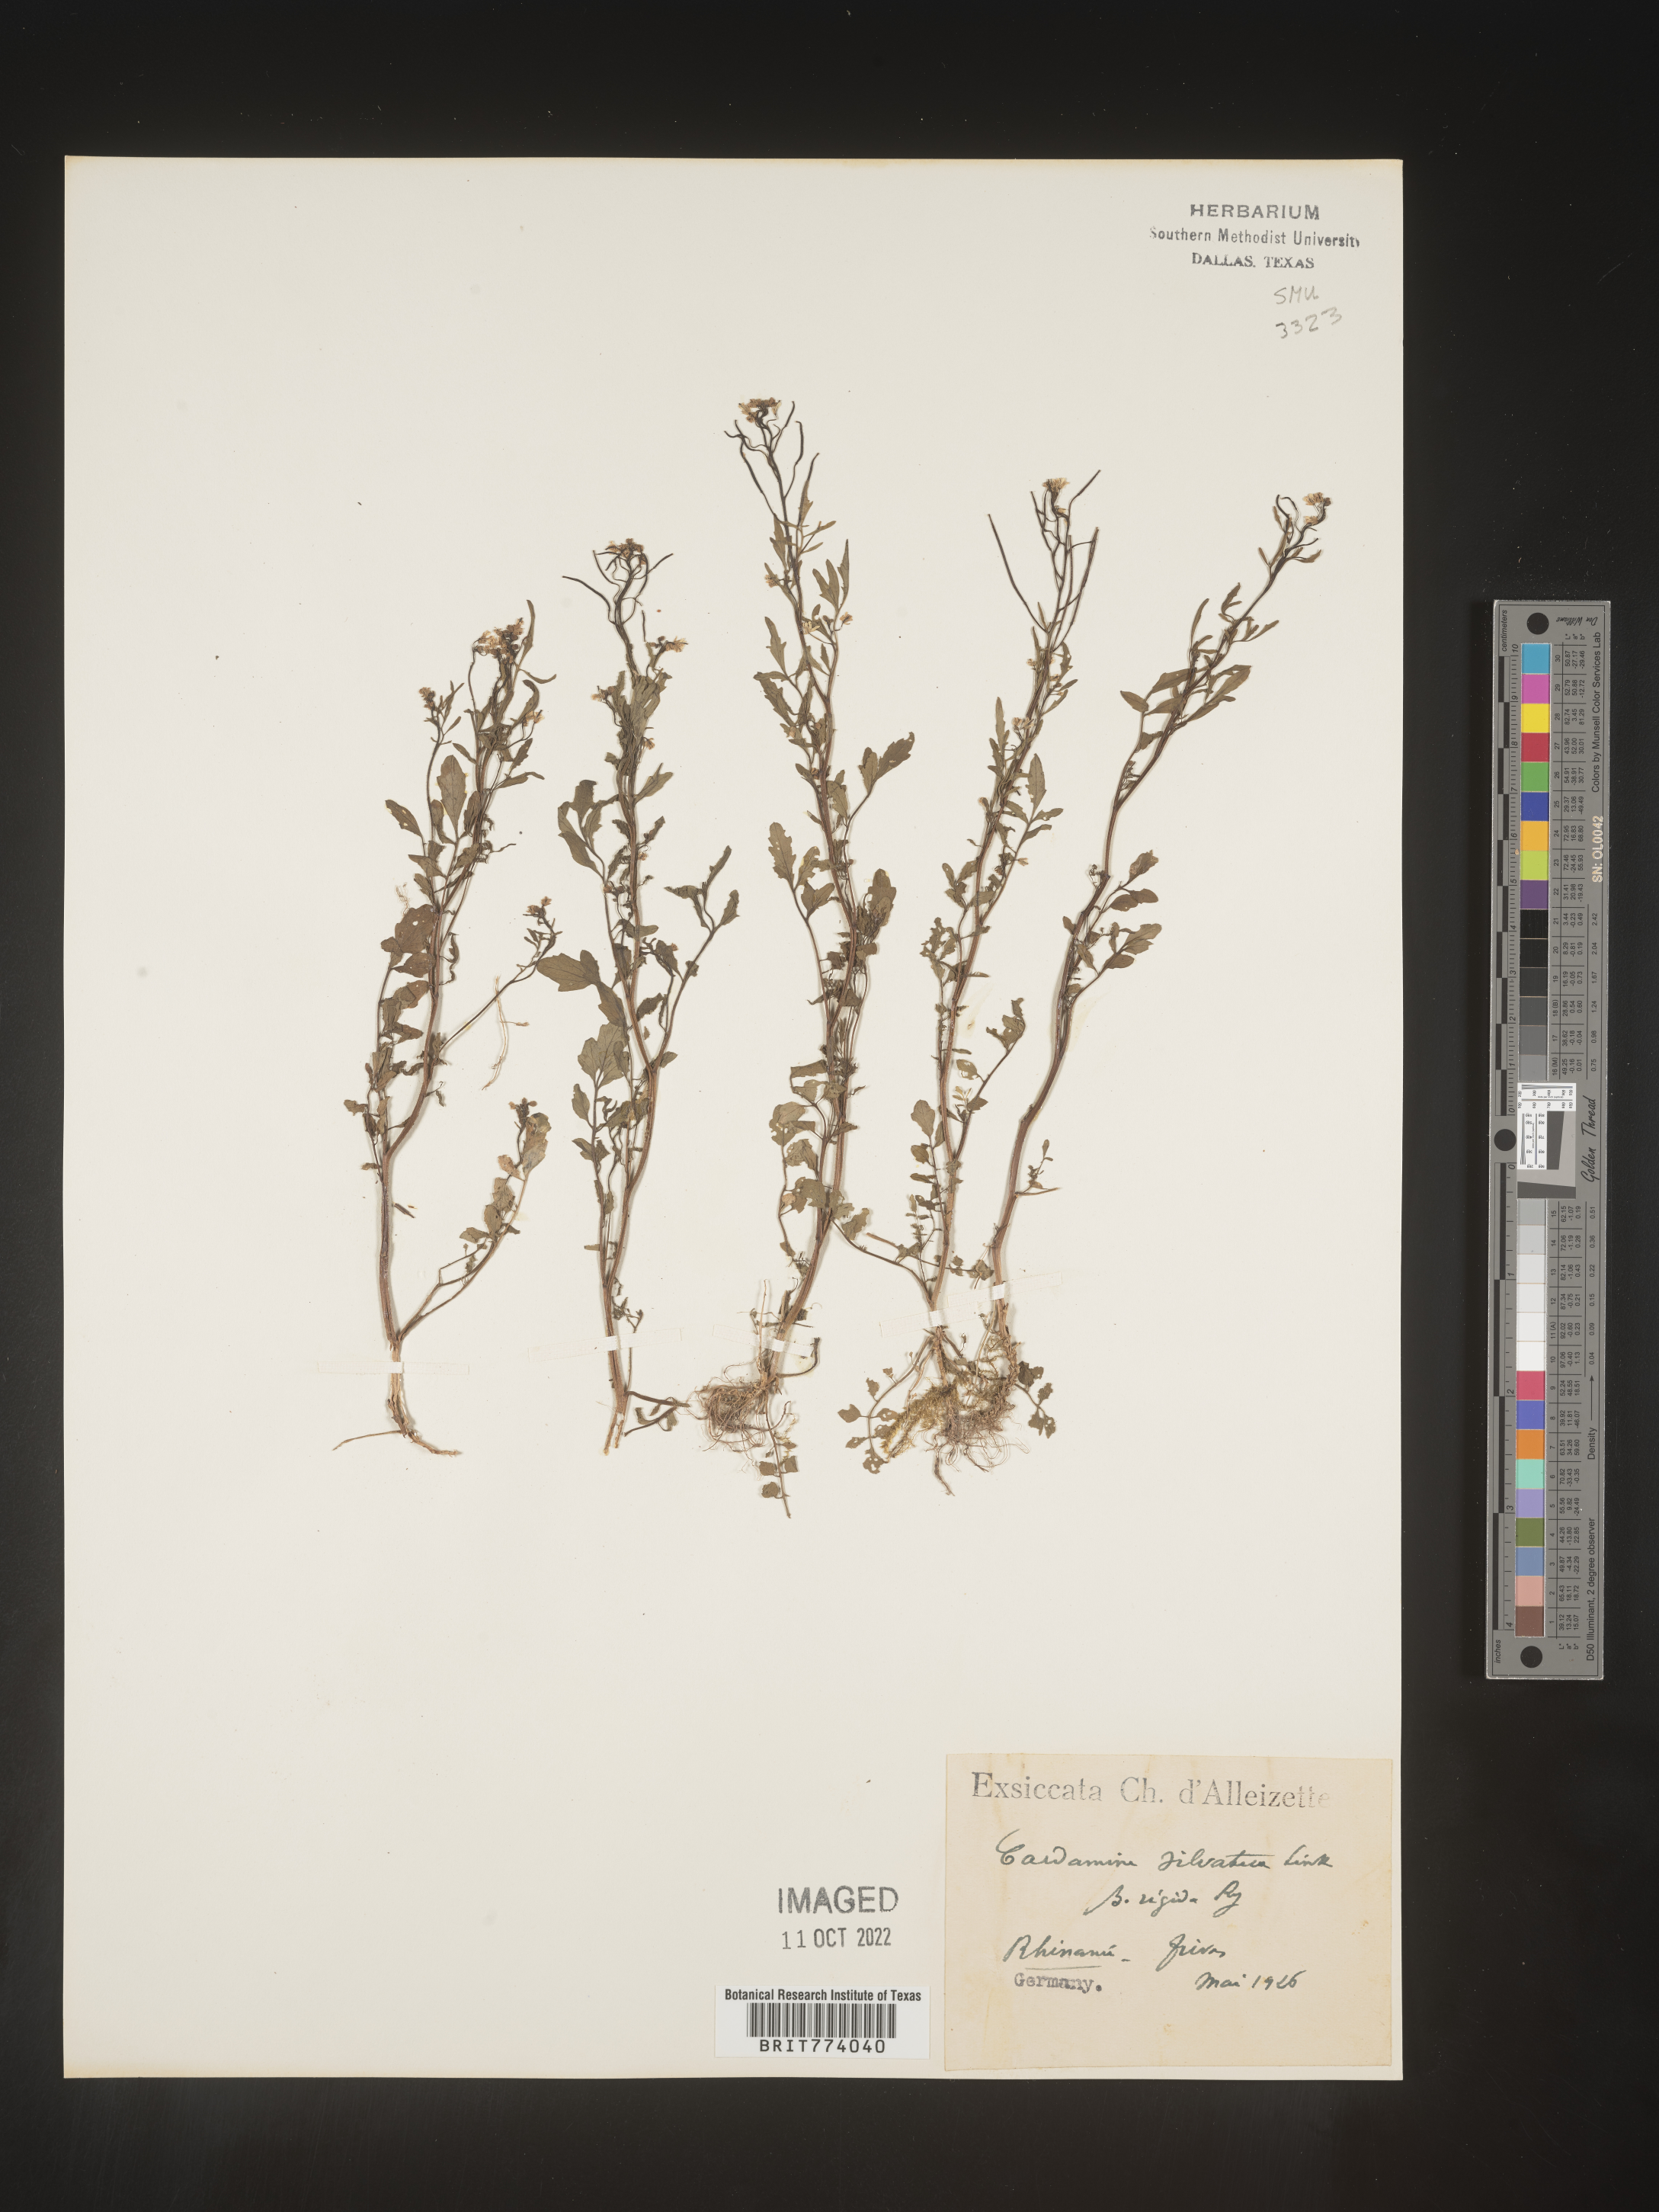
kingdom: Plantae
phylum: Tracheophyta
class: Magnoliopsida
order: Brassicales
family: Brassicaceae
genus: Cardamine
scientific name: Cardamine
